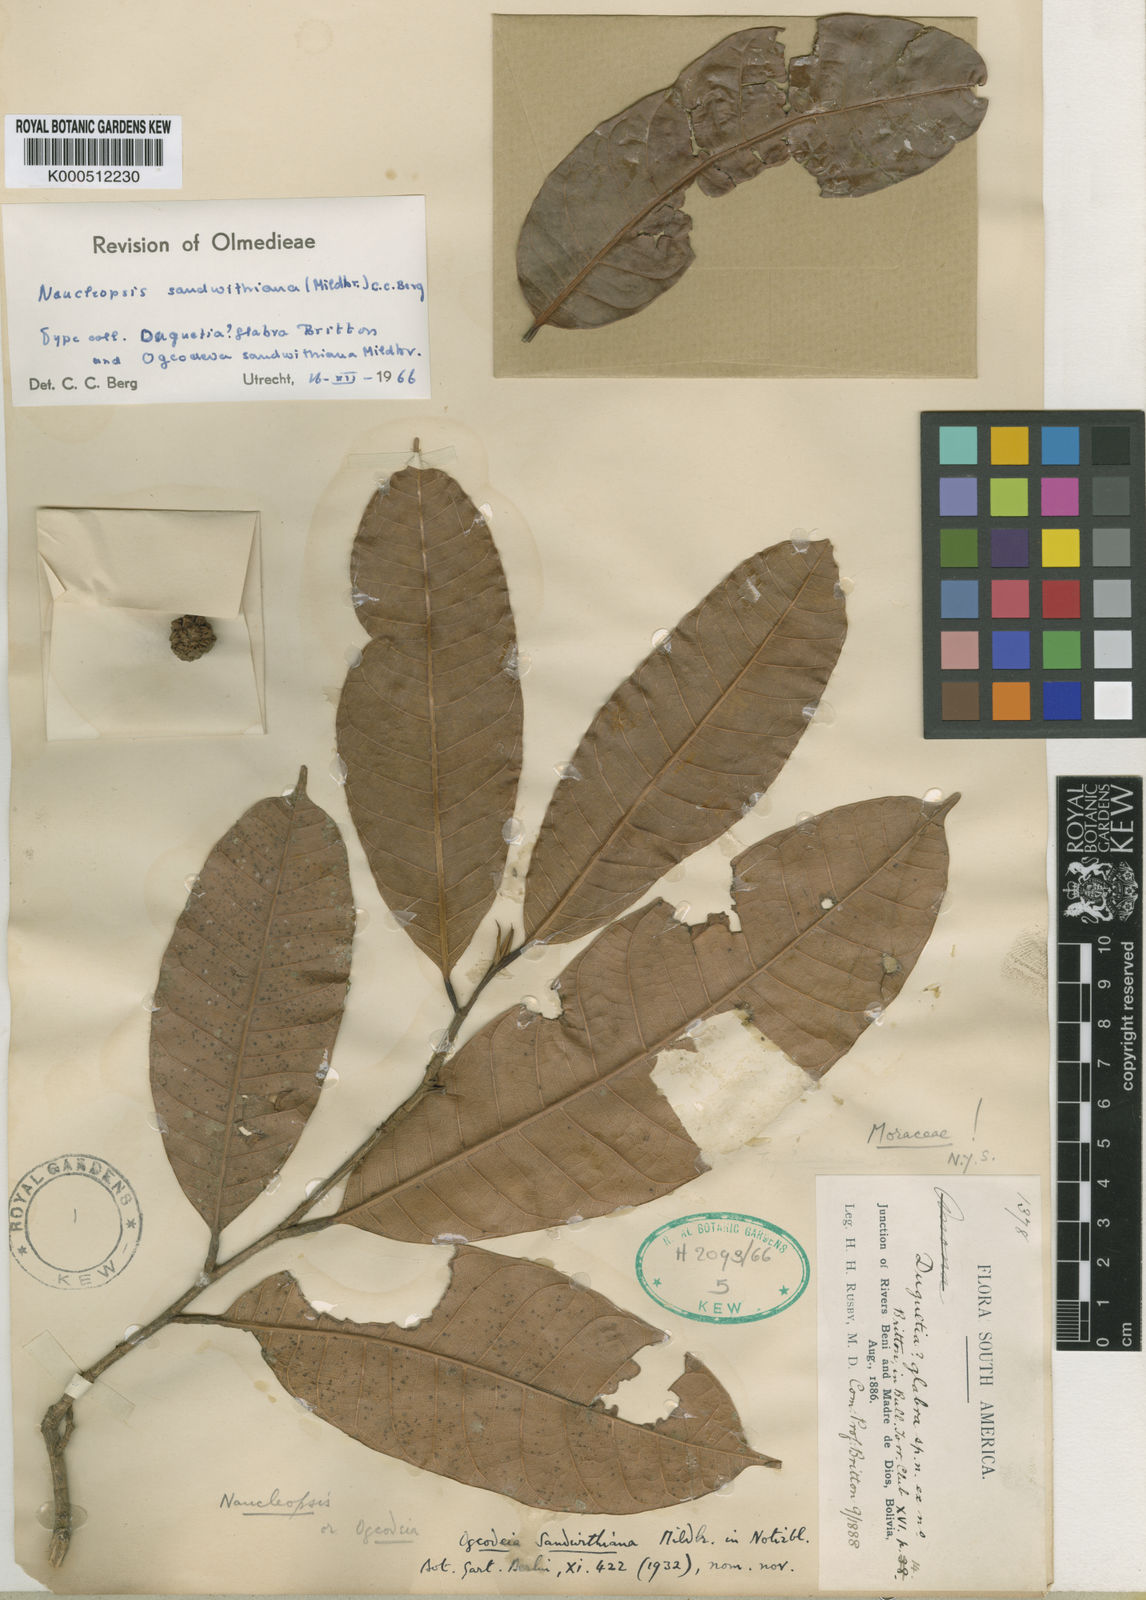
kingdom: Plantae
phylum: Tracheophyta
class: Magnoliopsida
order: Rosales
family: Moraceae
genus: Naucleopsis
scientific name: Naucleopsis
